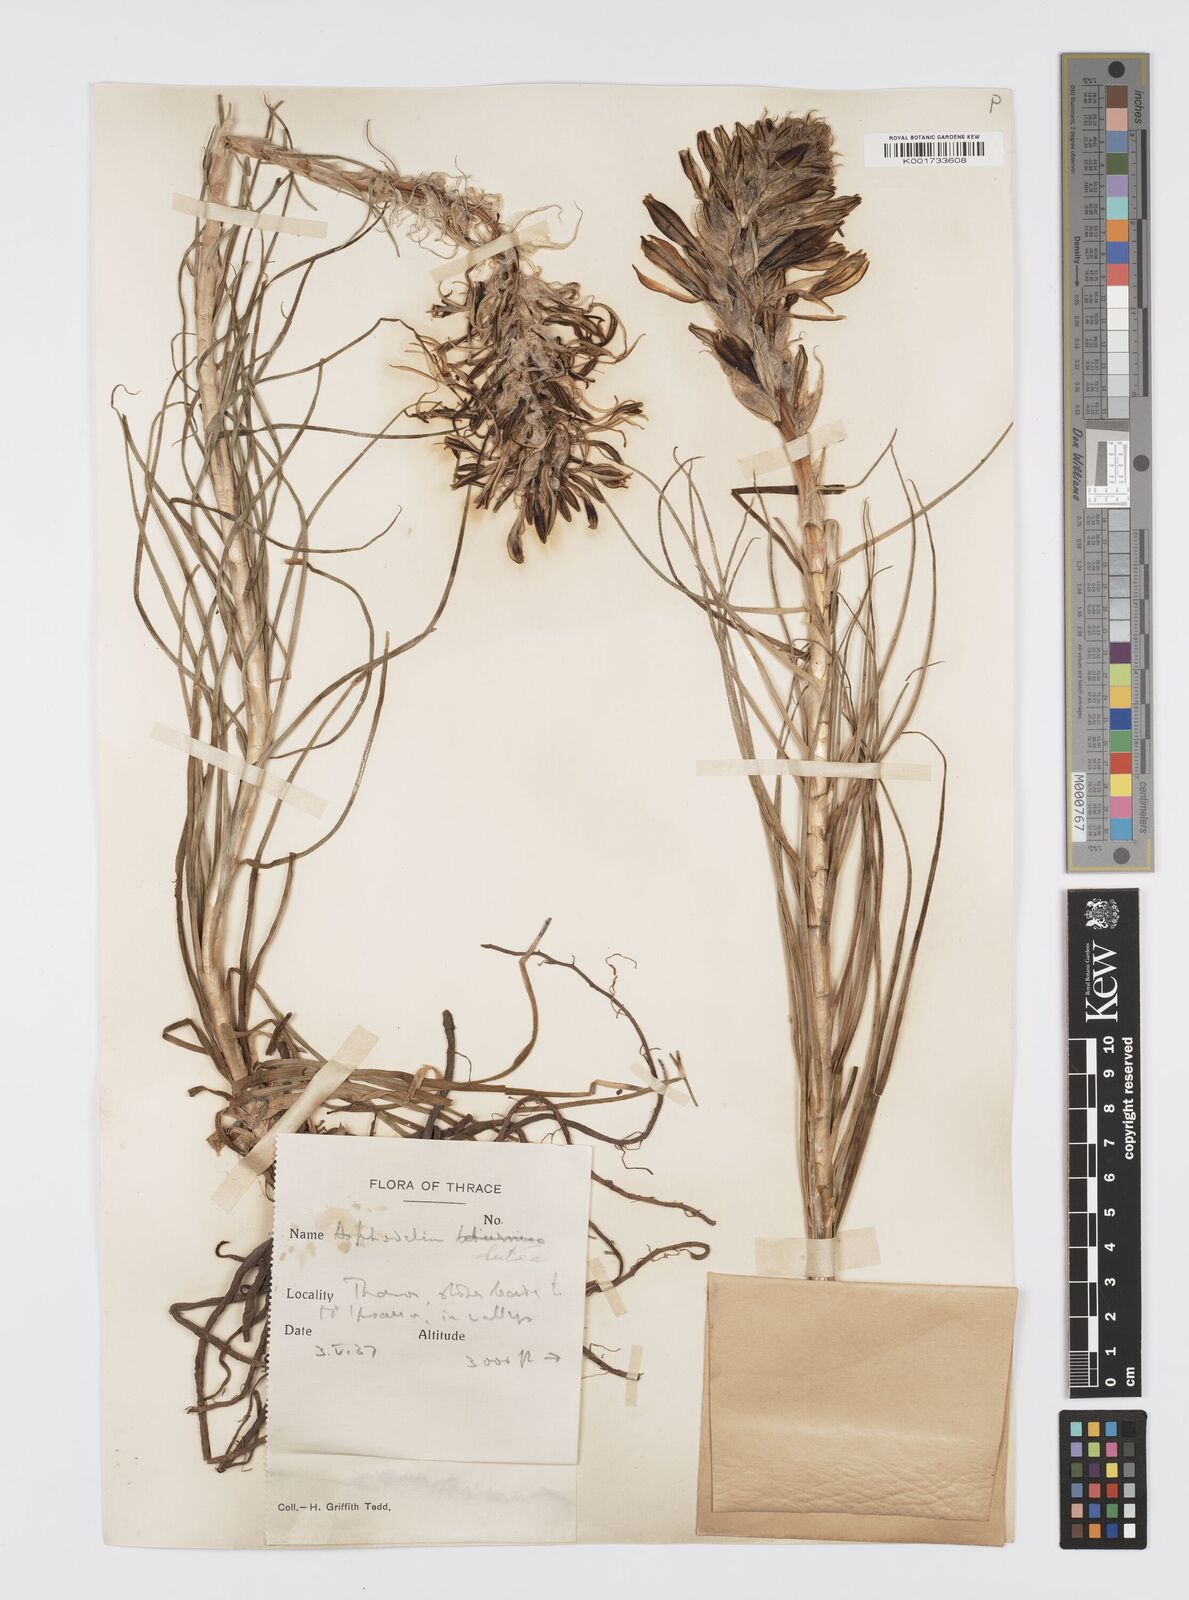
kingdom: Plantae
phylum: Tracheophyta
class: Liliopsida
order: Asparagales
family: Asphodelaceae
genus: Asphodeline
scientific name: Asphodeline lutea
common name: Yellow asphodel
